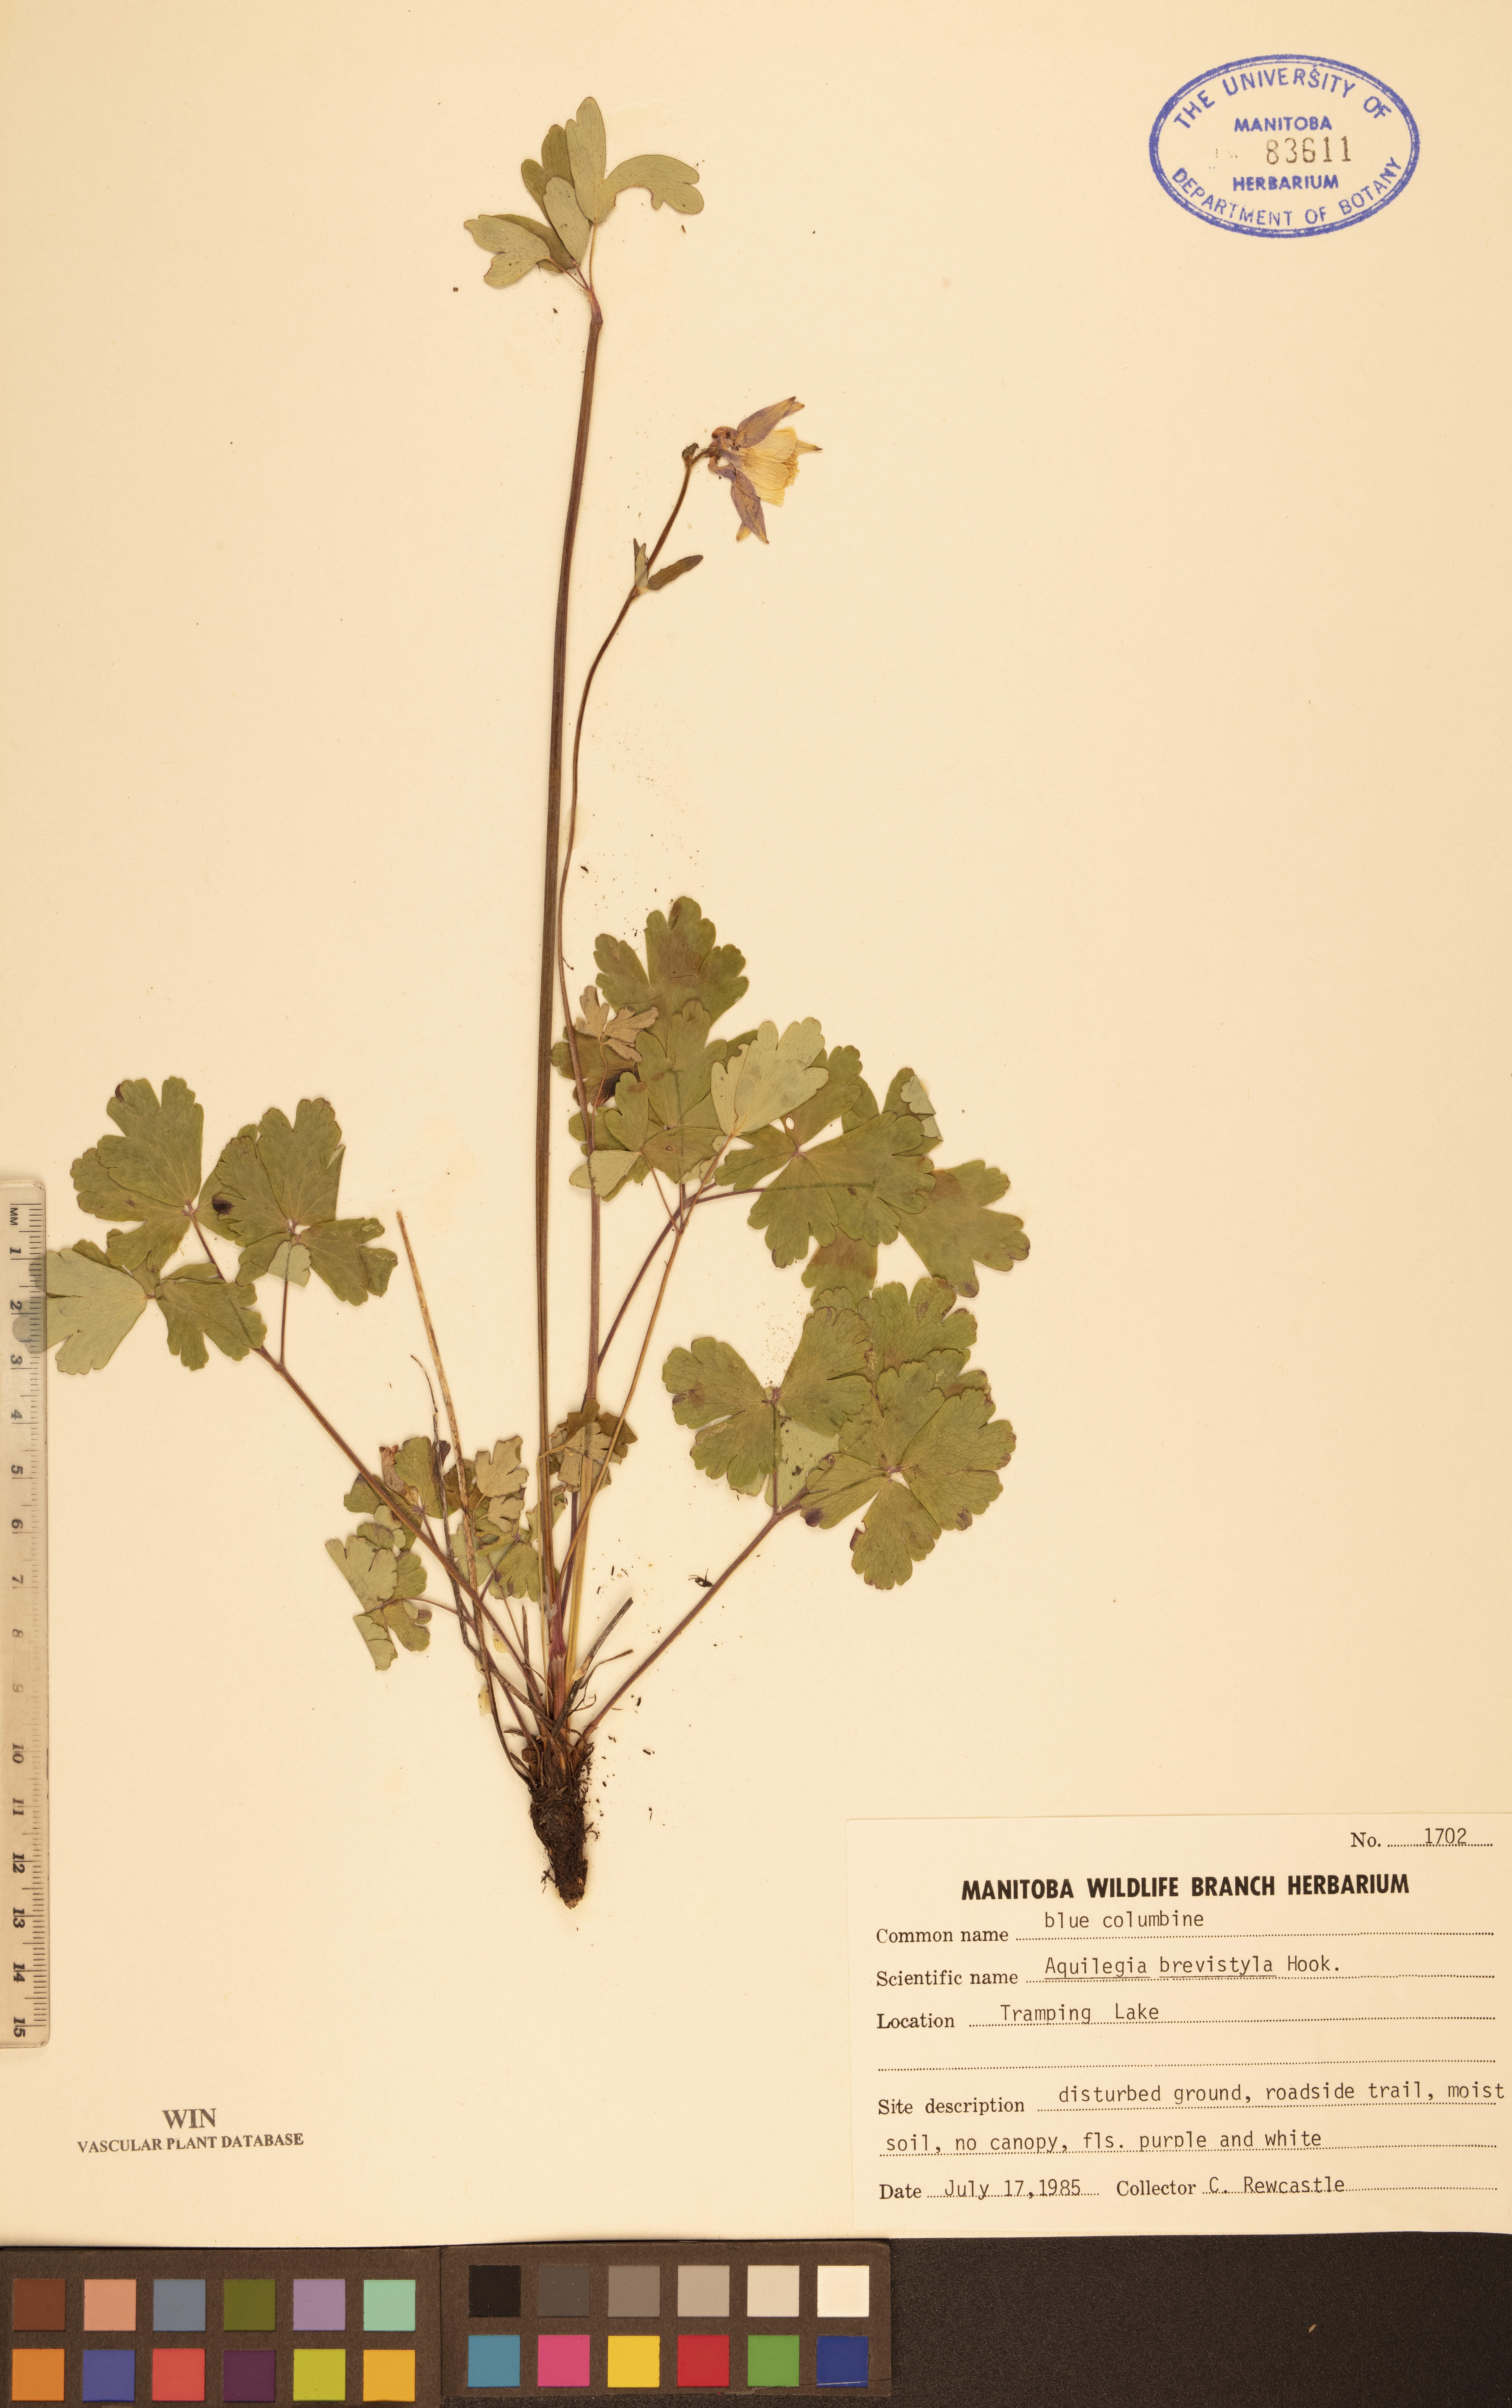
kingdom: Plantae
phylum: Tracheophyta
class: Magnoliopsida
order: Ranunculales
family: Ranunculaceae
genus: Aquilegia
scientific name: Aquilegia brevistyla
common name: Yukon columbine
